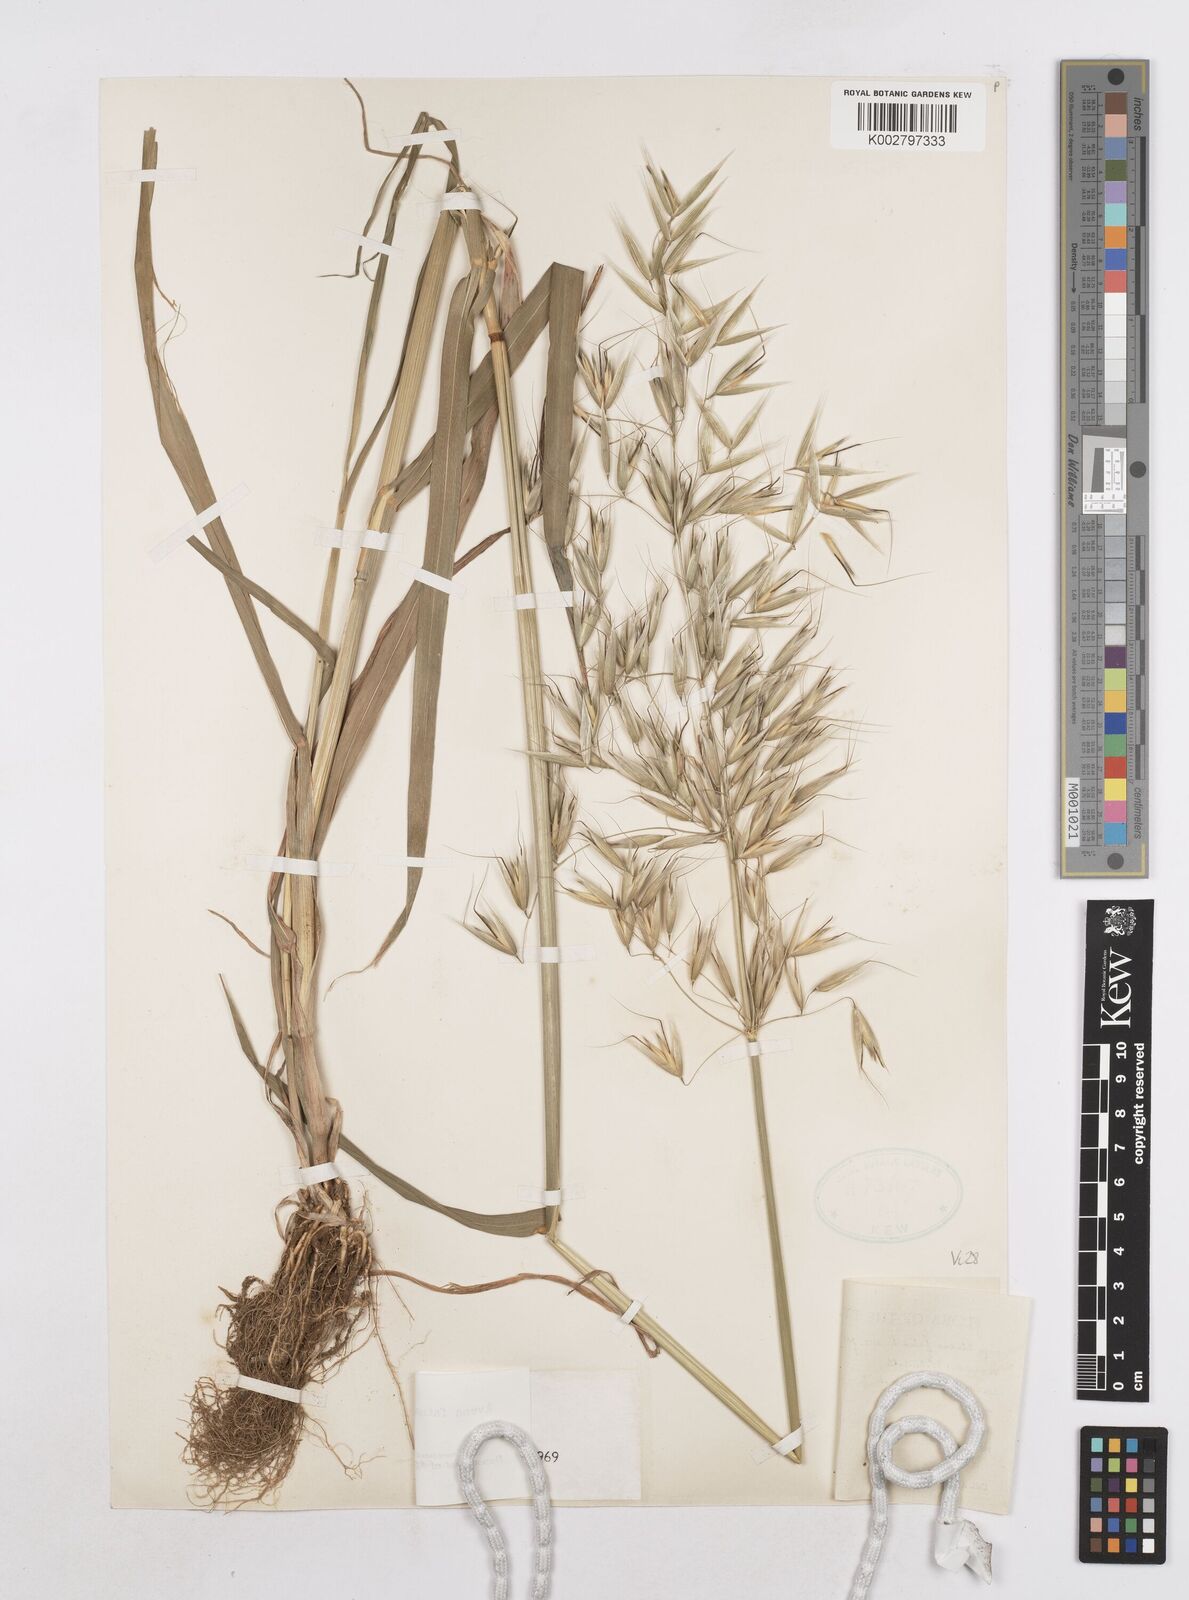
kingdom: Plantae
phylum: Tracheophyta
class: Liliopsida
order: Poales
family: Poaceae
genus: Avena
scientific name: Avena fatua
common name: Wild oat
